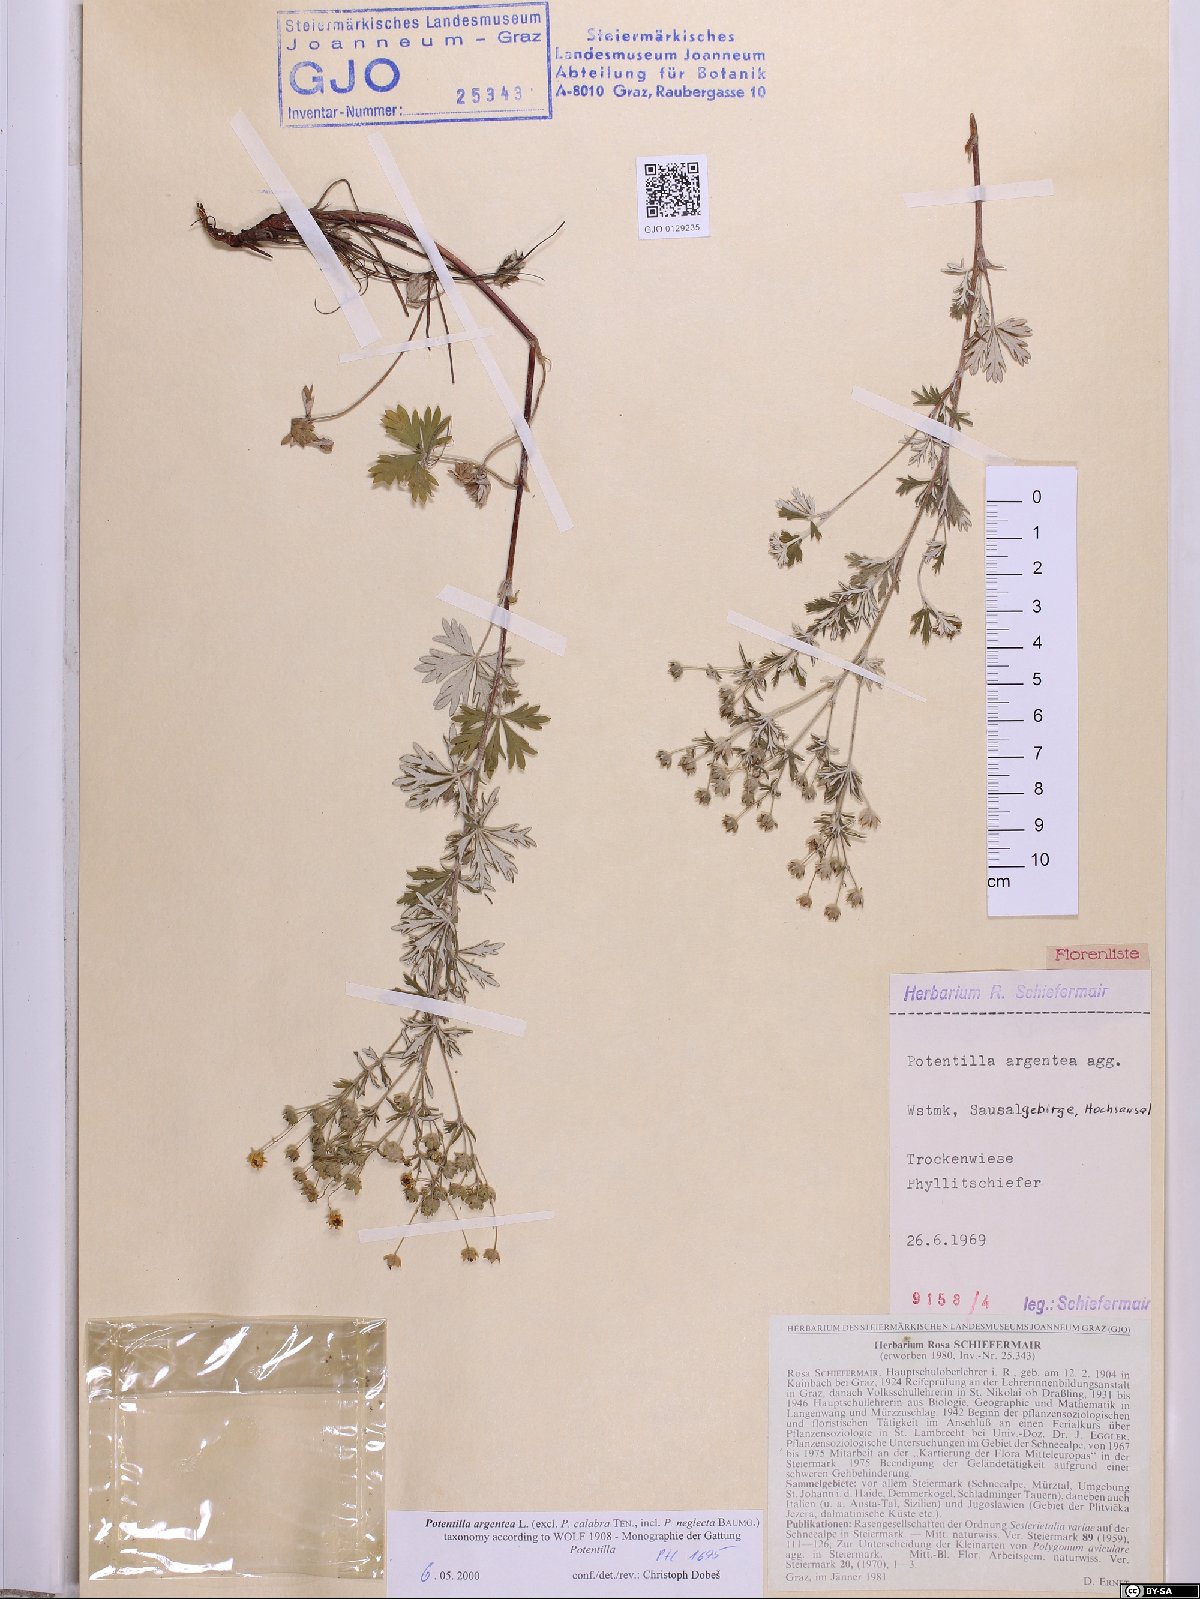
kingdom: Plantae
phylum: Tracheophyta
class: Magnoliopsida
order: Rosales
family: Rosaceae
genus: Potentilla
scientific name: Potentilla argentea
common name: Hoary cinquefoil
